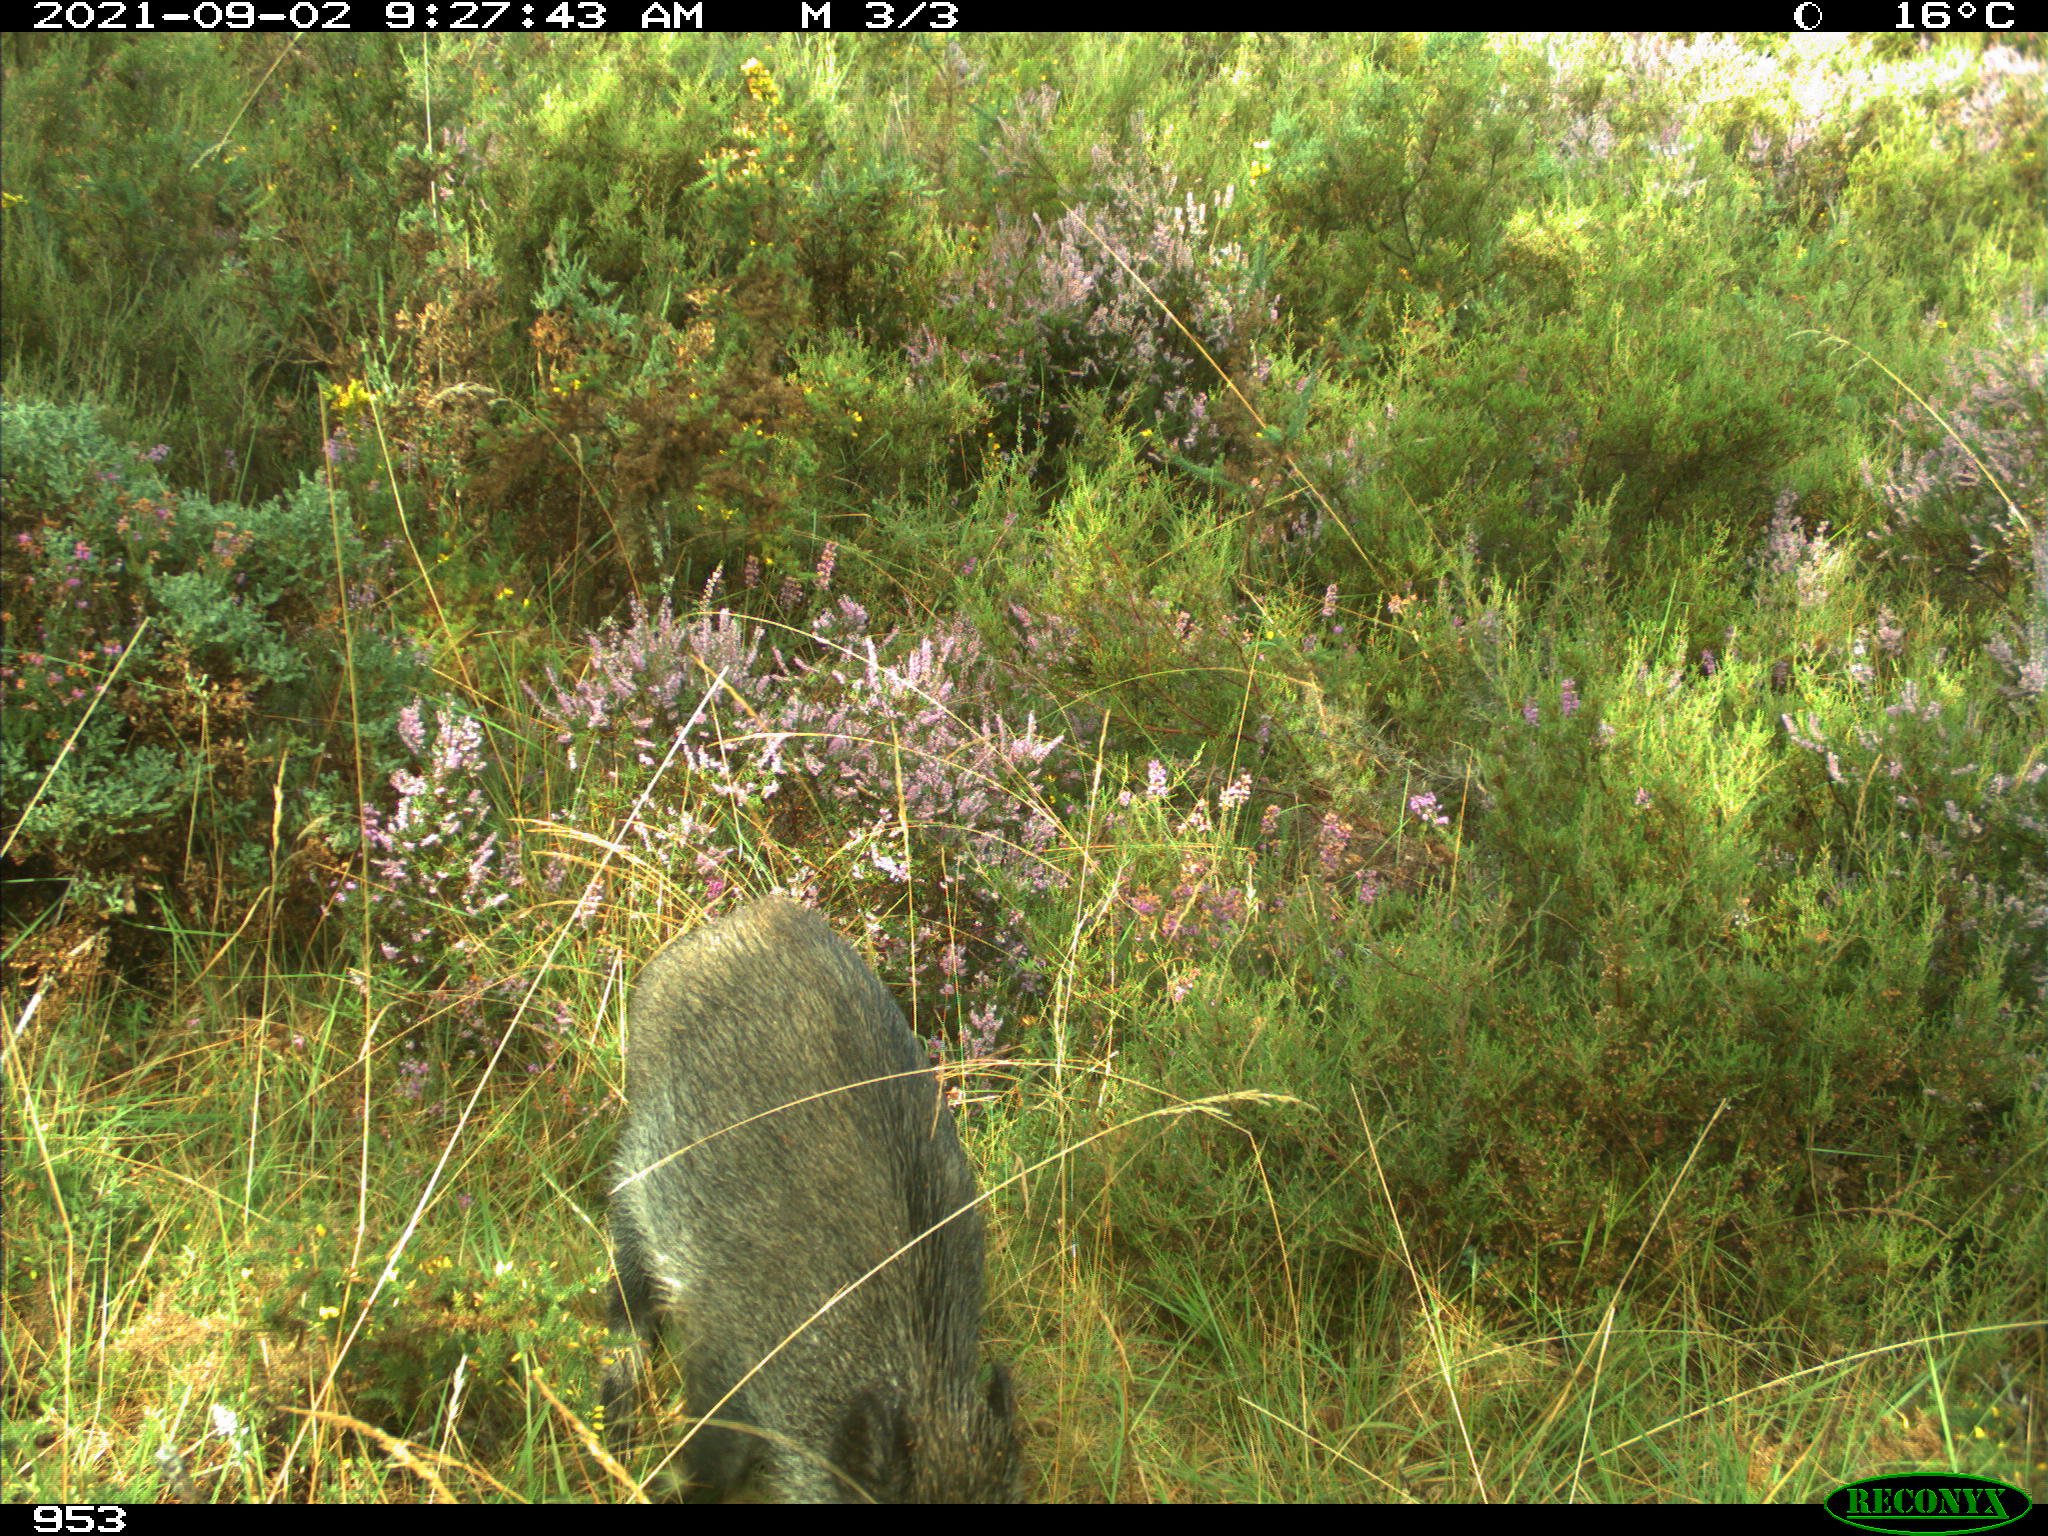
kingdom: Animalia
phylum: Chordata
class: Mammalia
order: Artiodactyla
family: Suidae
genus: Sus
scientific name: Sus scrofa
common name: Wild boar
